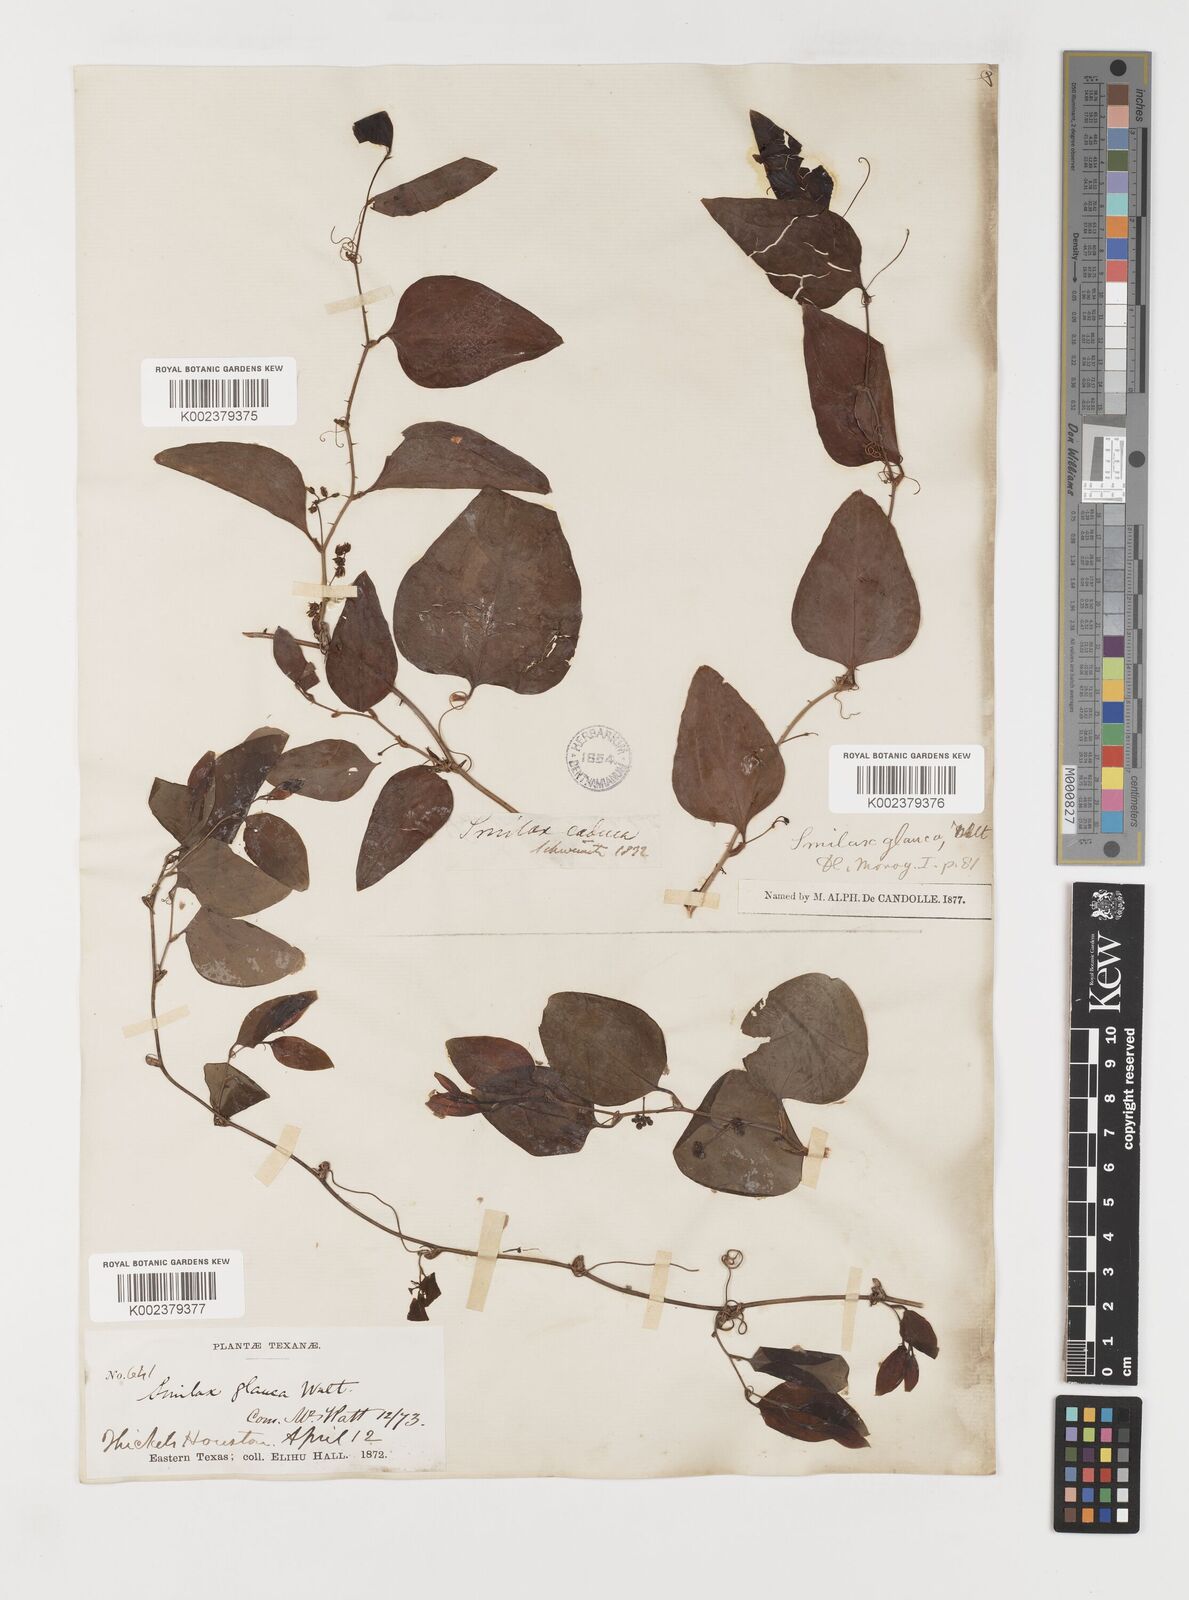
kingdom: Plantae
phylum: Tracheophyta
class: Liliopsida
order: Liliales
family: Smilacaceae
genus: Smilax
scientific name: Smilax glauca
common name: Cat greenbrier
